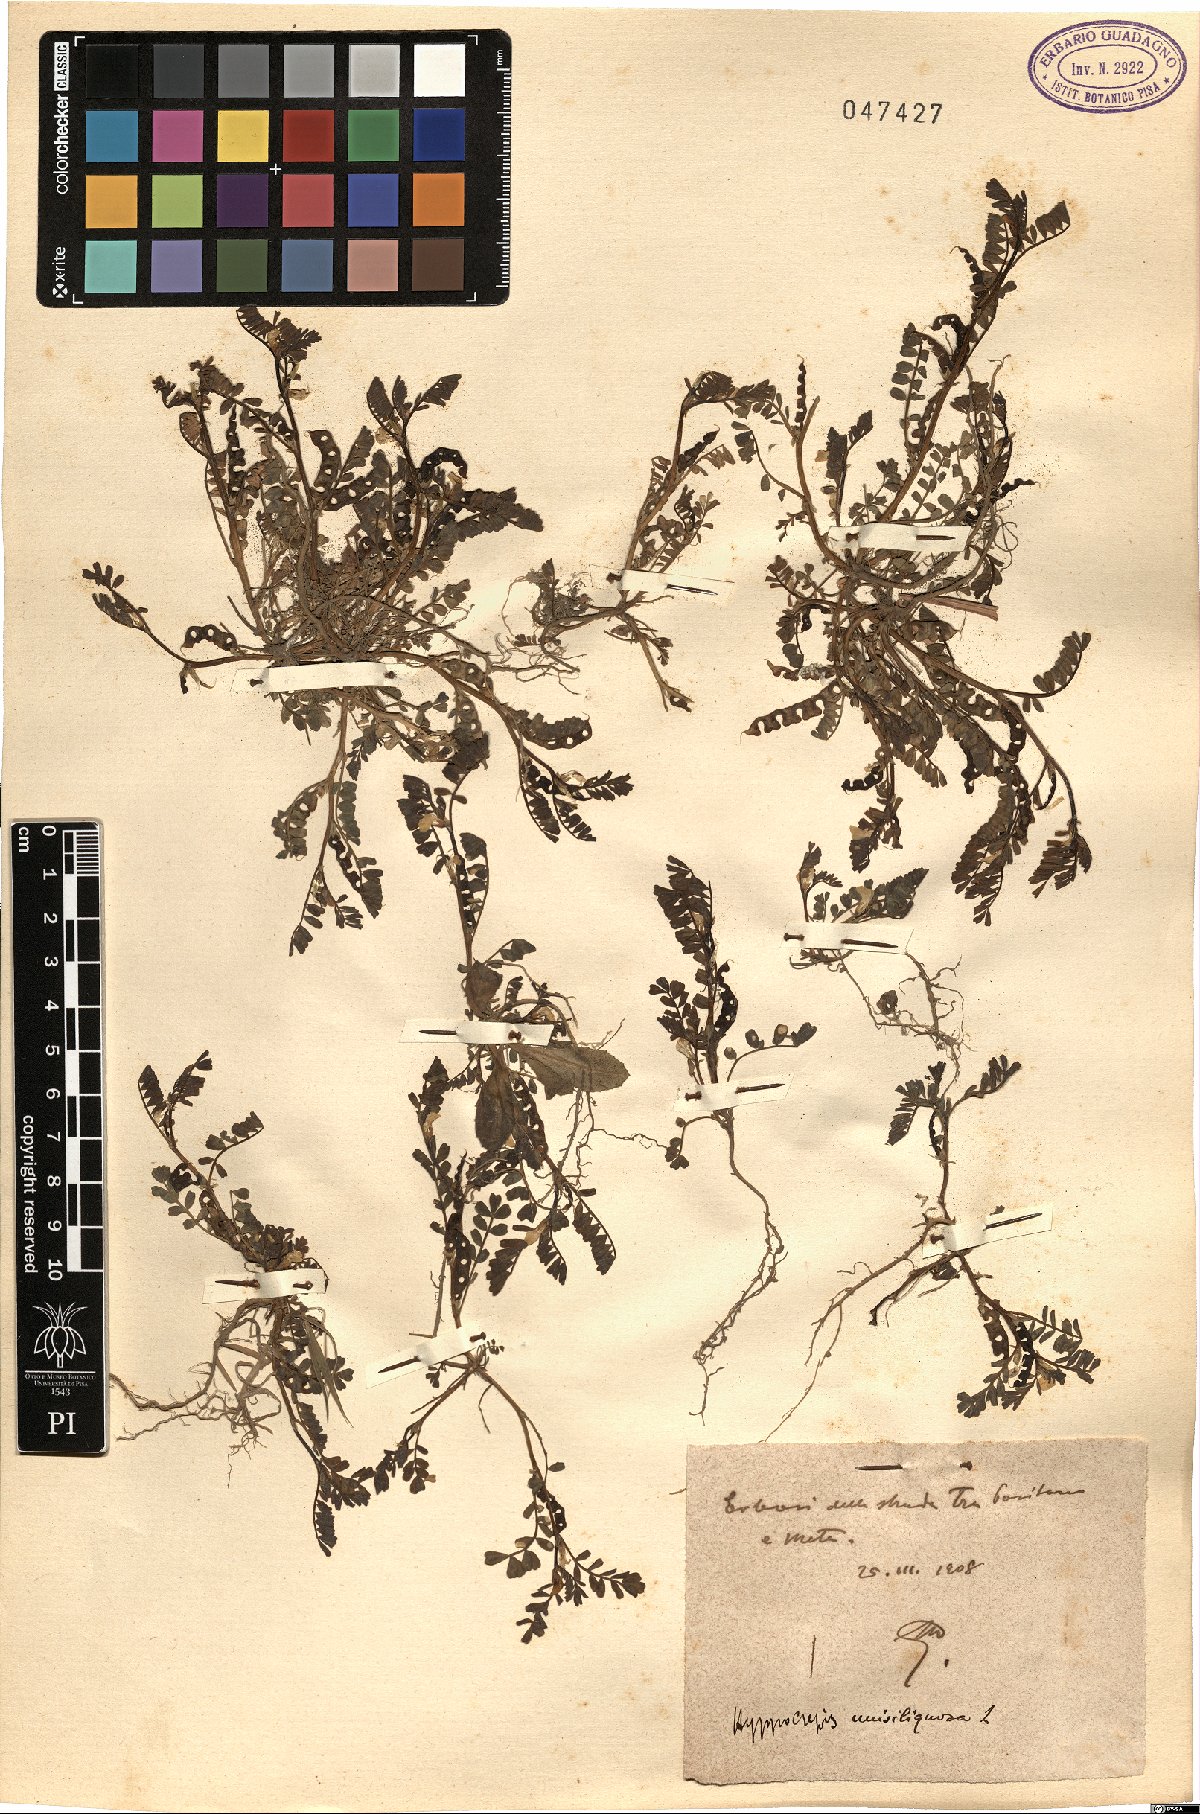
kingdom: Plantae
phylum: Tracheophyta
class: Magnoliopsida
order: Fabales
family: Fabaceae
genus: Hippocrepis
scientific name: Hippocrepis unisiliquosa
